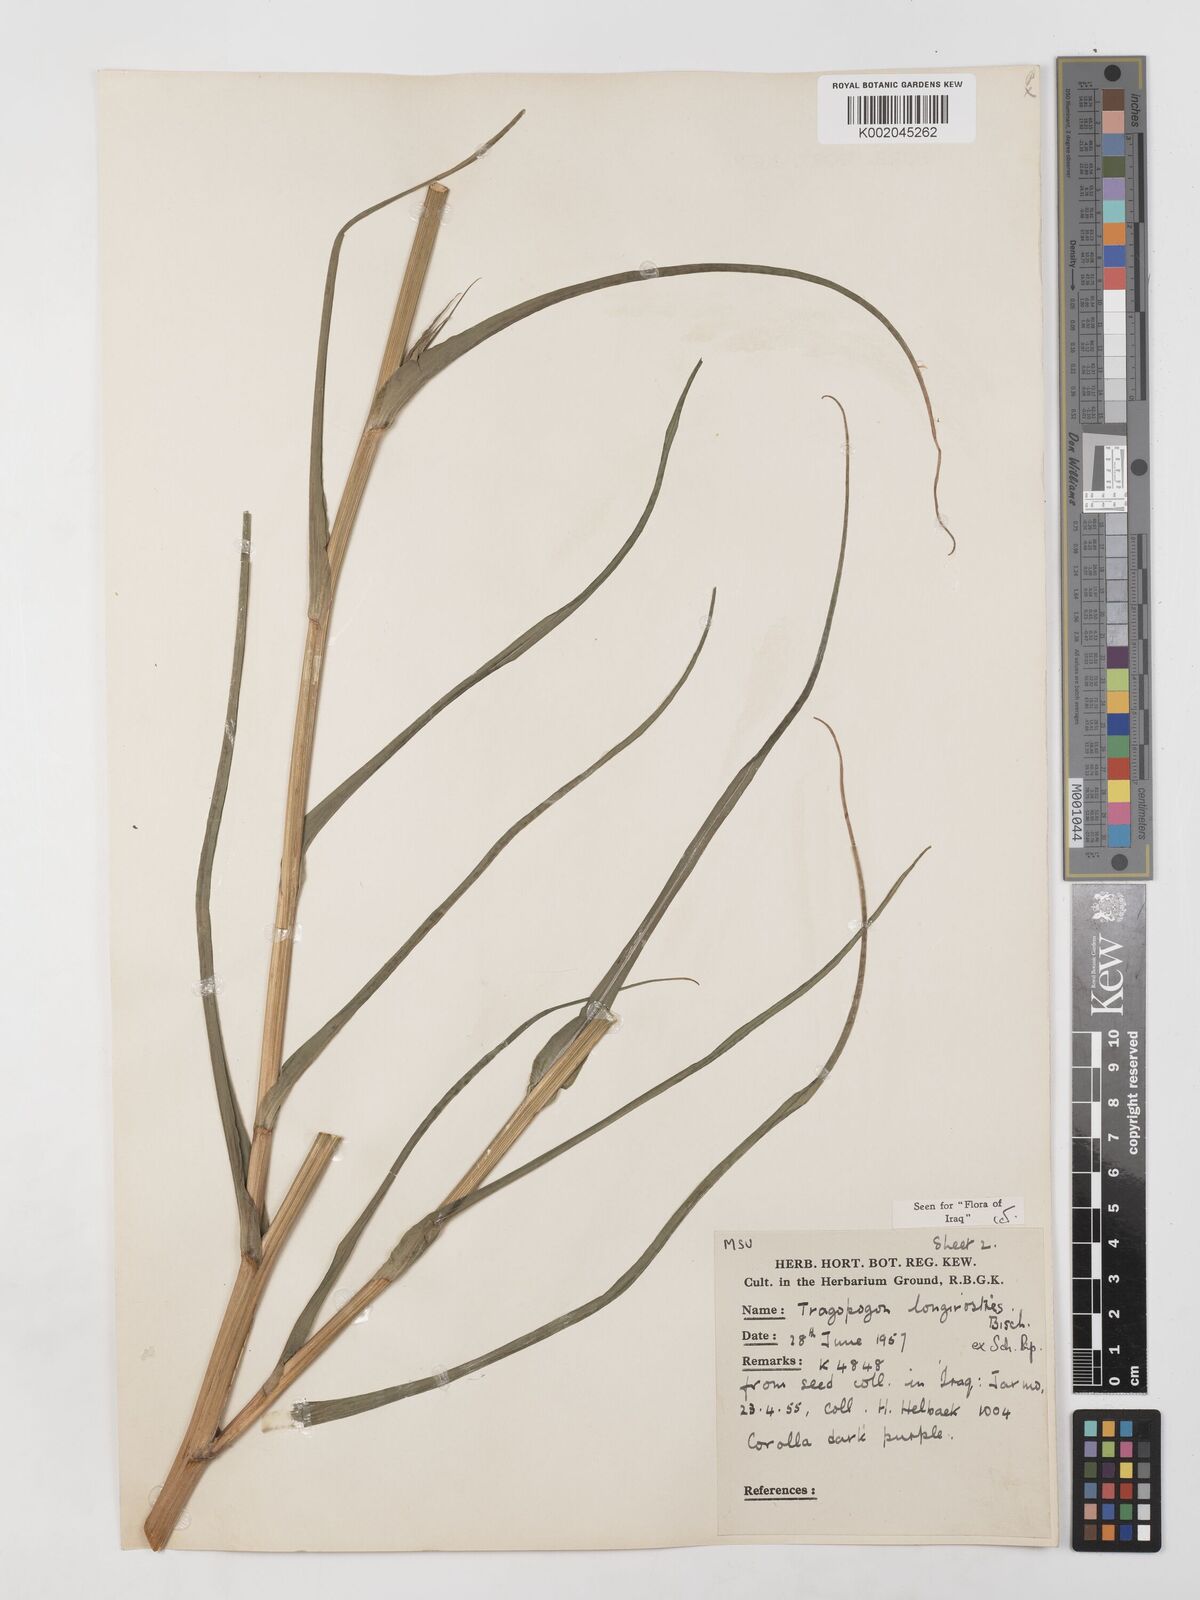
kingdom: Plantae
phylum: Tracheophyta
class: Magnoliopsida
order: Asterales
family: Asteraceae
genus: Tragopogon
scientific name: Tragopogon coelesyriacus
